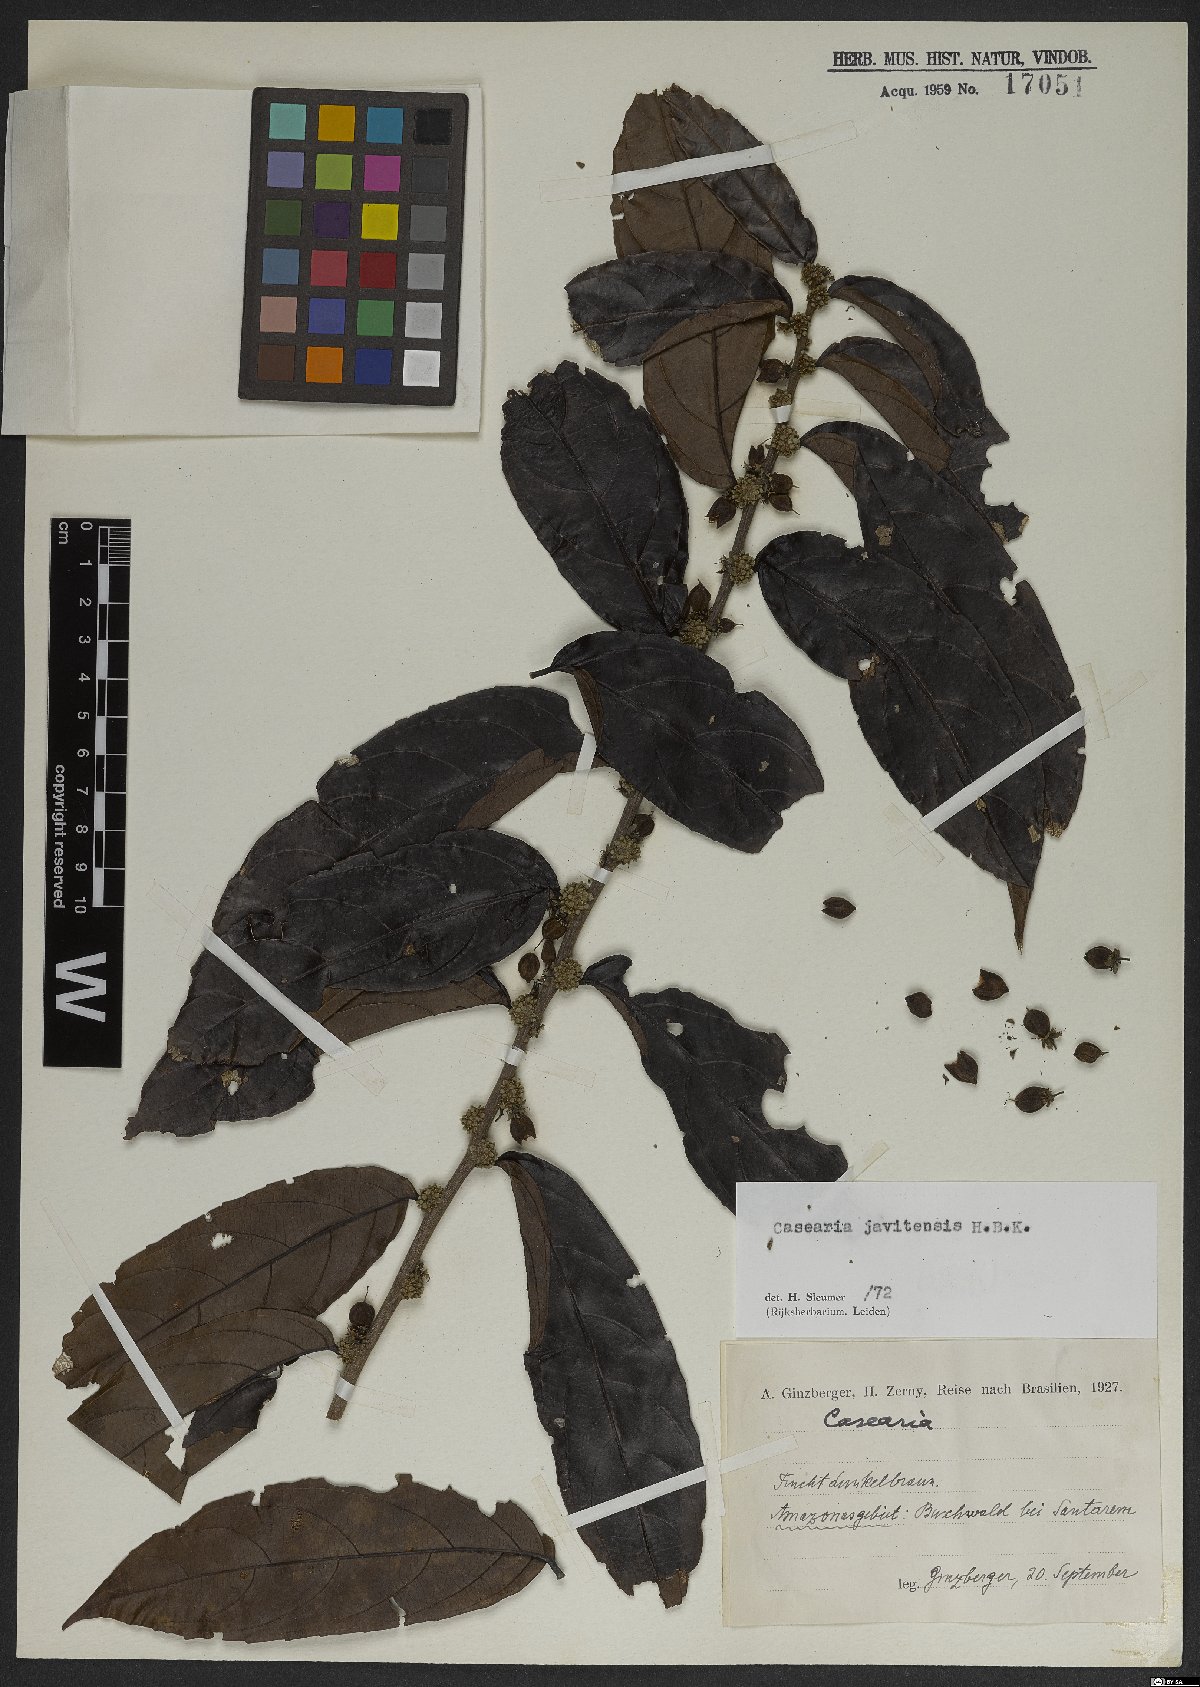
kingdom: Plantae
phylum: Tracheophyta
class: Magnoliopsida
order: Malpighiales
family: Salicaceae
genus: Piparea
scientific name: Piparea multiflora
